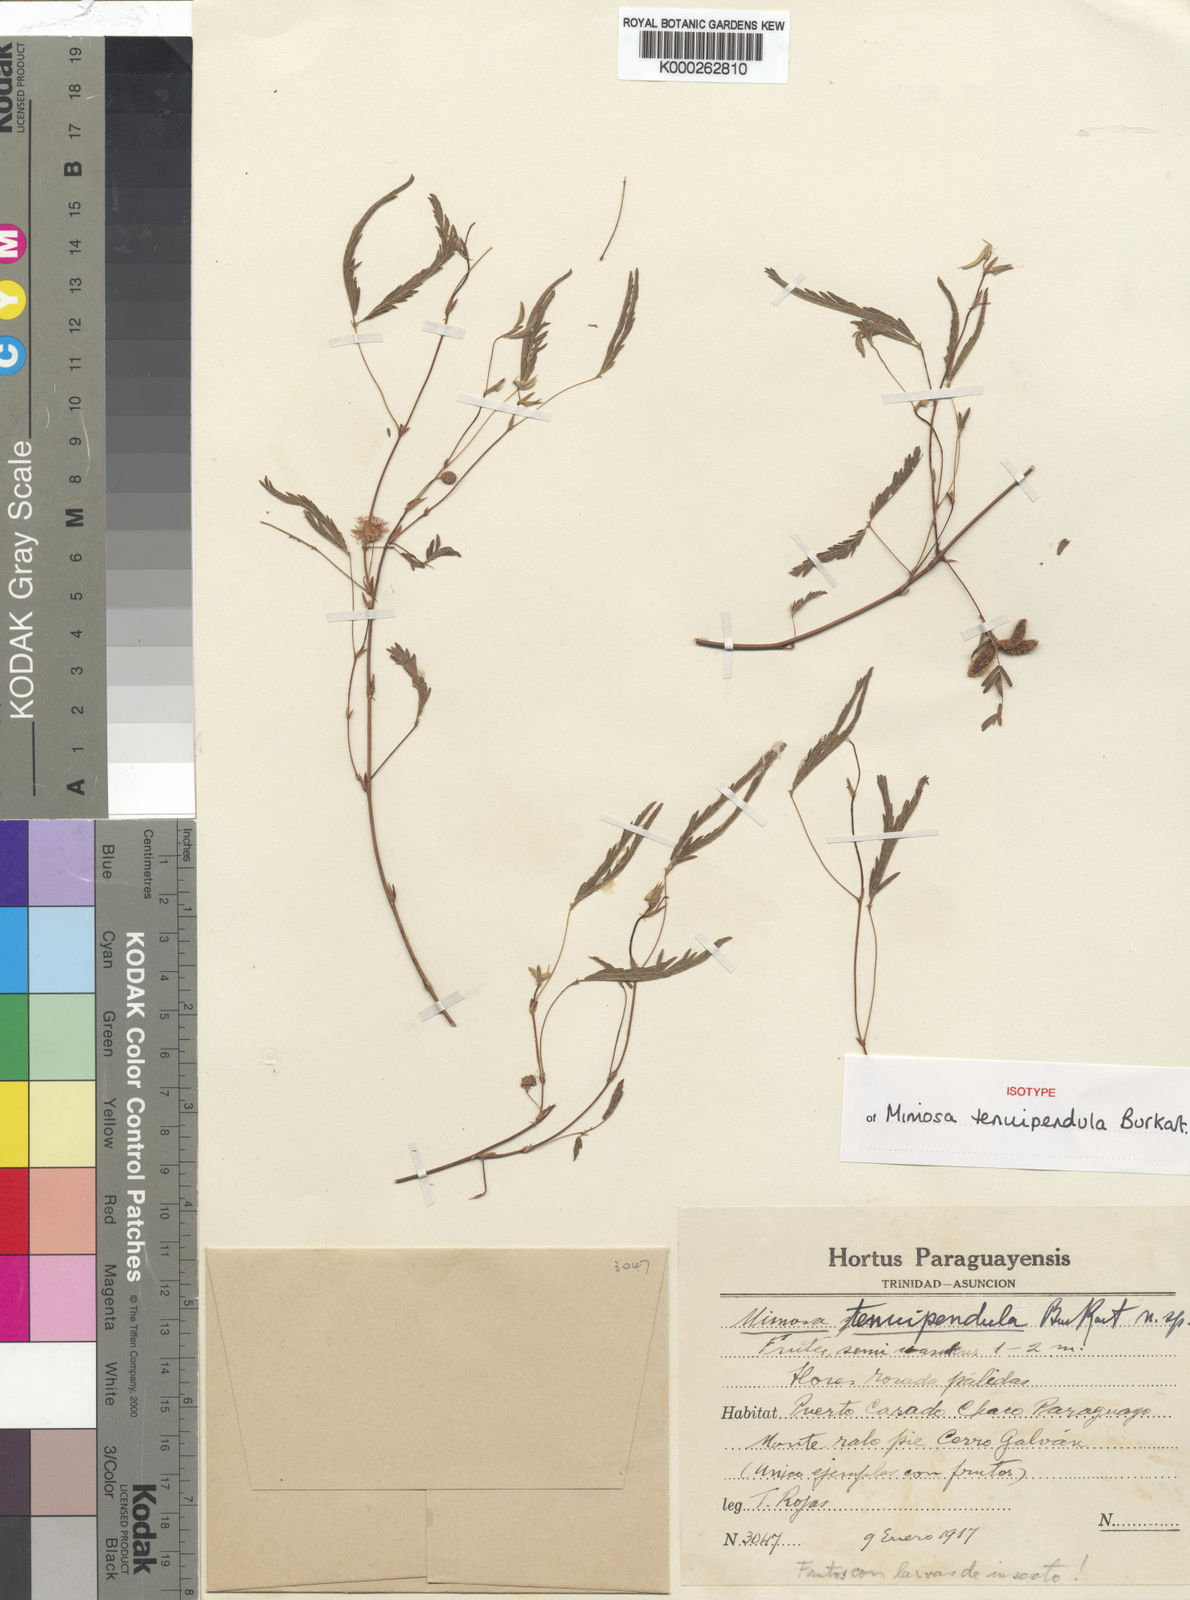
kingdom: Plantae
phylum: Tracheophyta
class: Magnoliopsida
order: Fabales
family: Fabaceae
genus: Mimosa
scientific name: Mimosa tenuipendula
